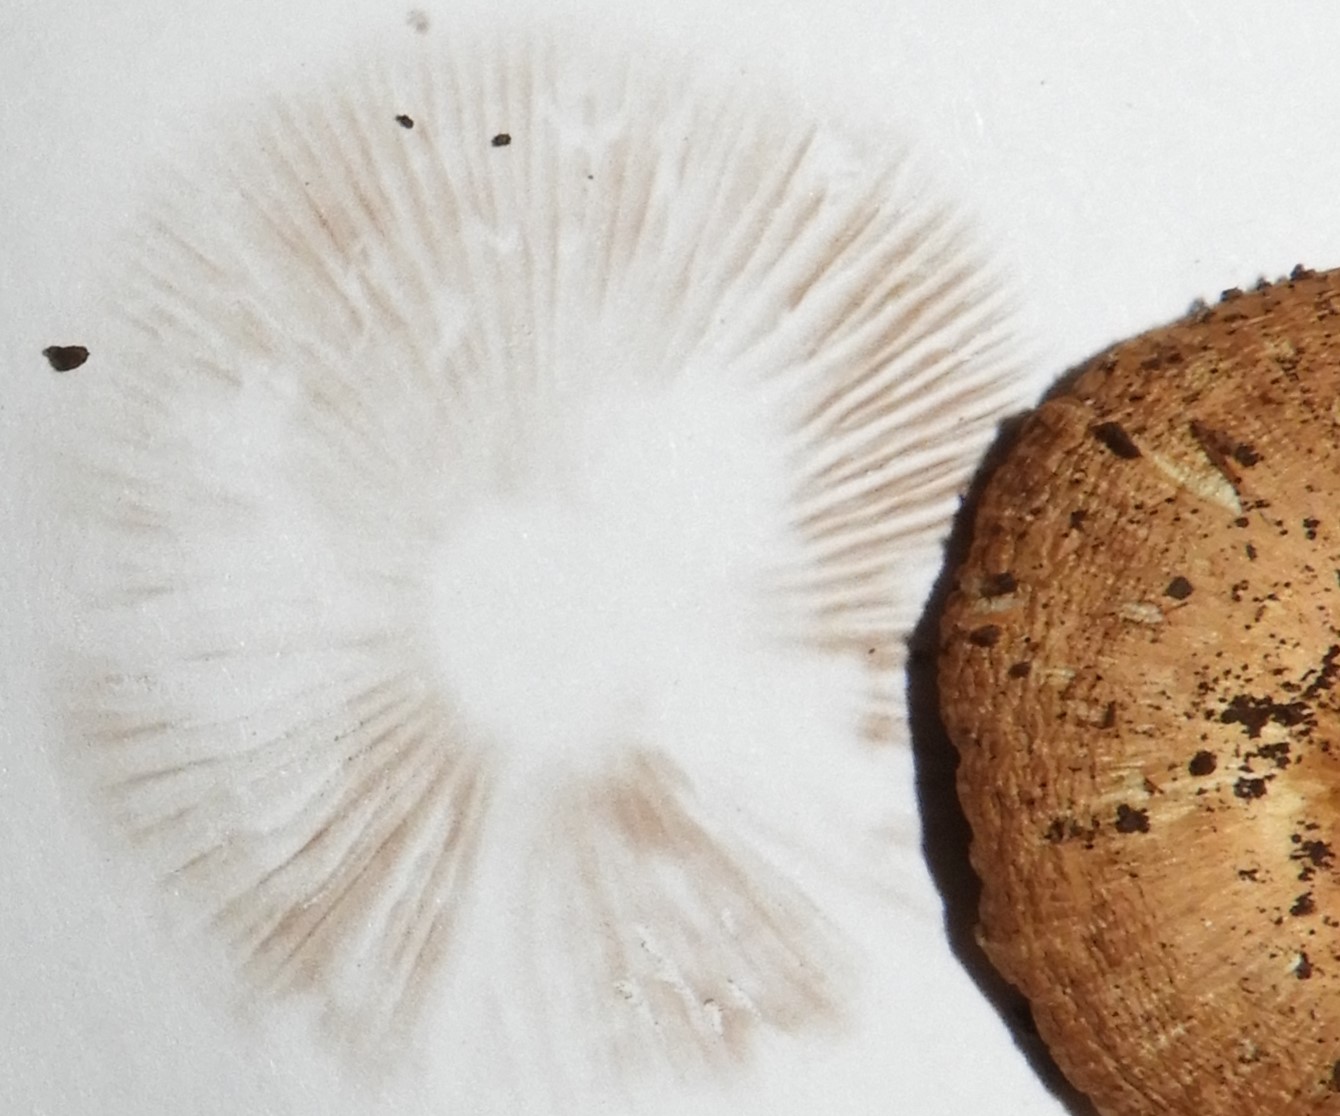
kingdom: Fungi
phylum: Basidiomycota
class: Agaricomycetes
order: Agaricales
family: Inocybaceae
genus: Inocybe
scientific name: Inocybe mixtilis
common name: randknoldet trævlhat
